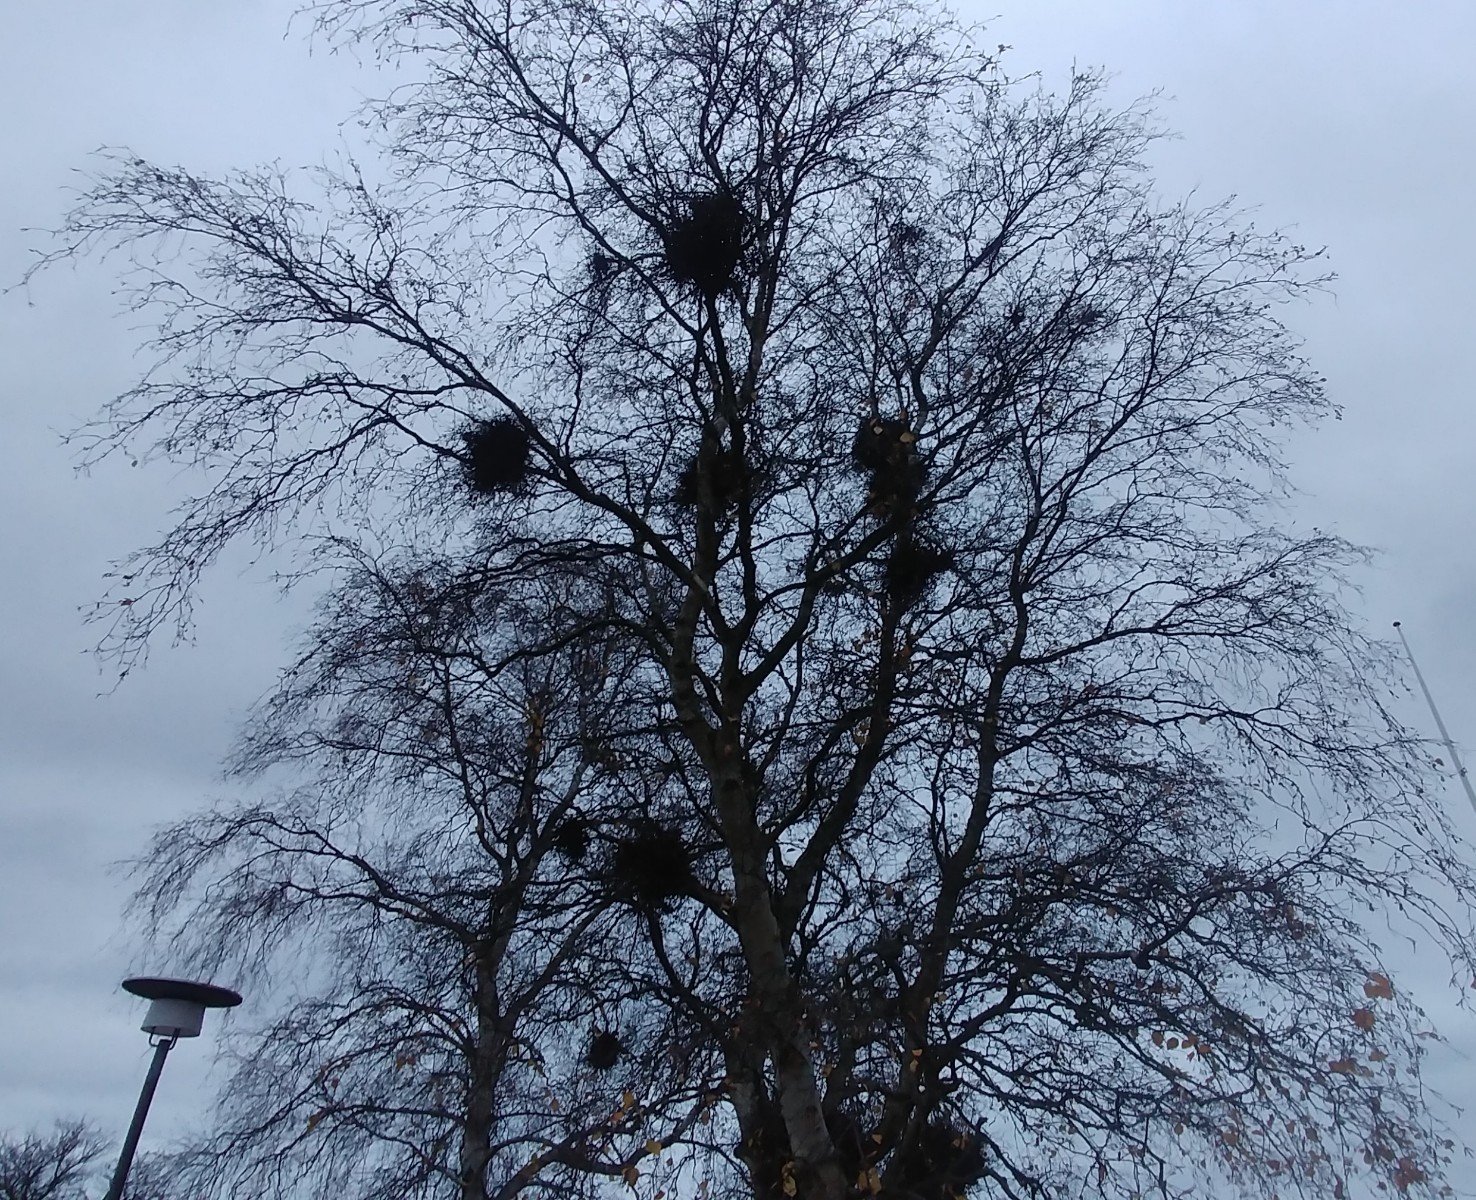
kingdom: Fungi
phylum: Ascomycota
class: Taphrinomycetes
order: Taphrinales
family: Taphrinaceae
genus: Taphrina
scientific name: Taphrina betulina
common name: hekse-sækdug
